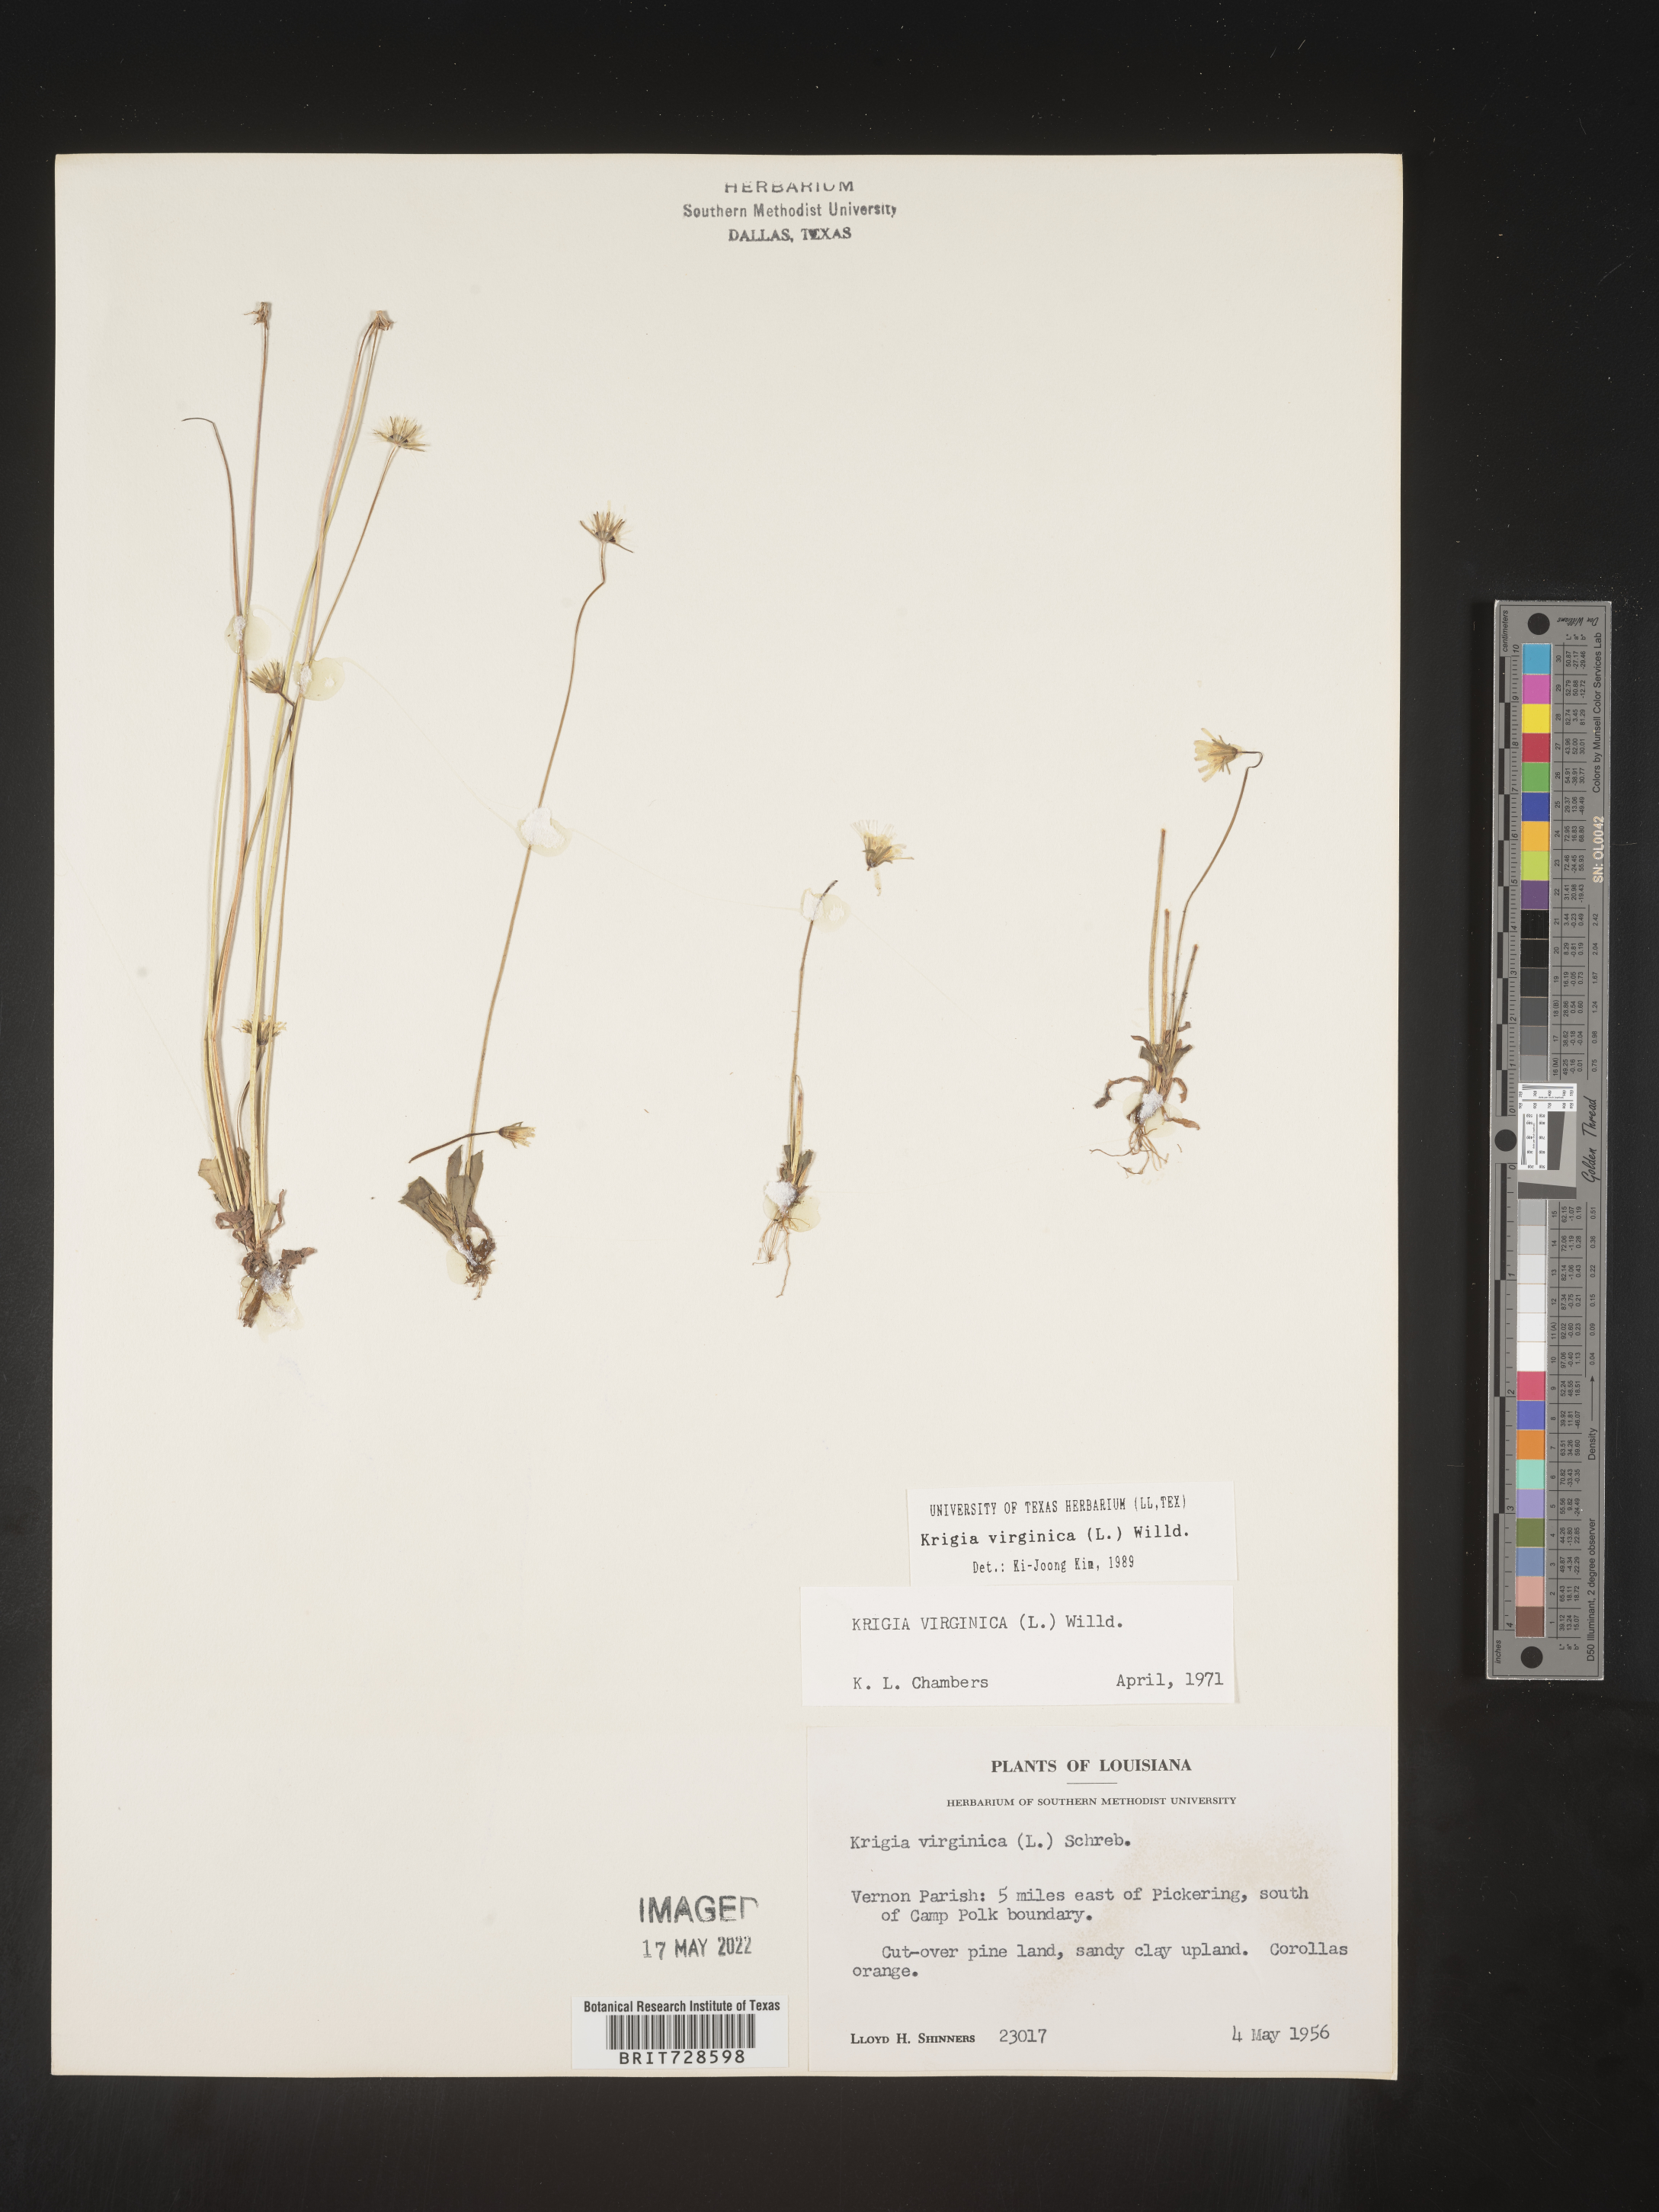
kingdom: Plantae
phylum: Tracheophyta
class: Magnoliopsida
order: Asterales
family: Asteraceae
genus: Krigia
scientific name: Krigia virginica
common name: Virginia dwarf-dandelion
